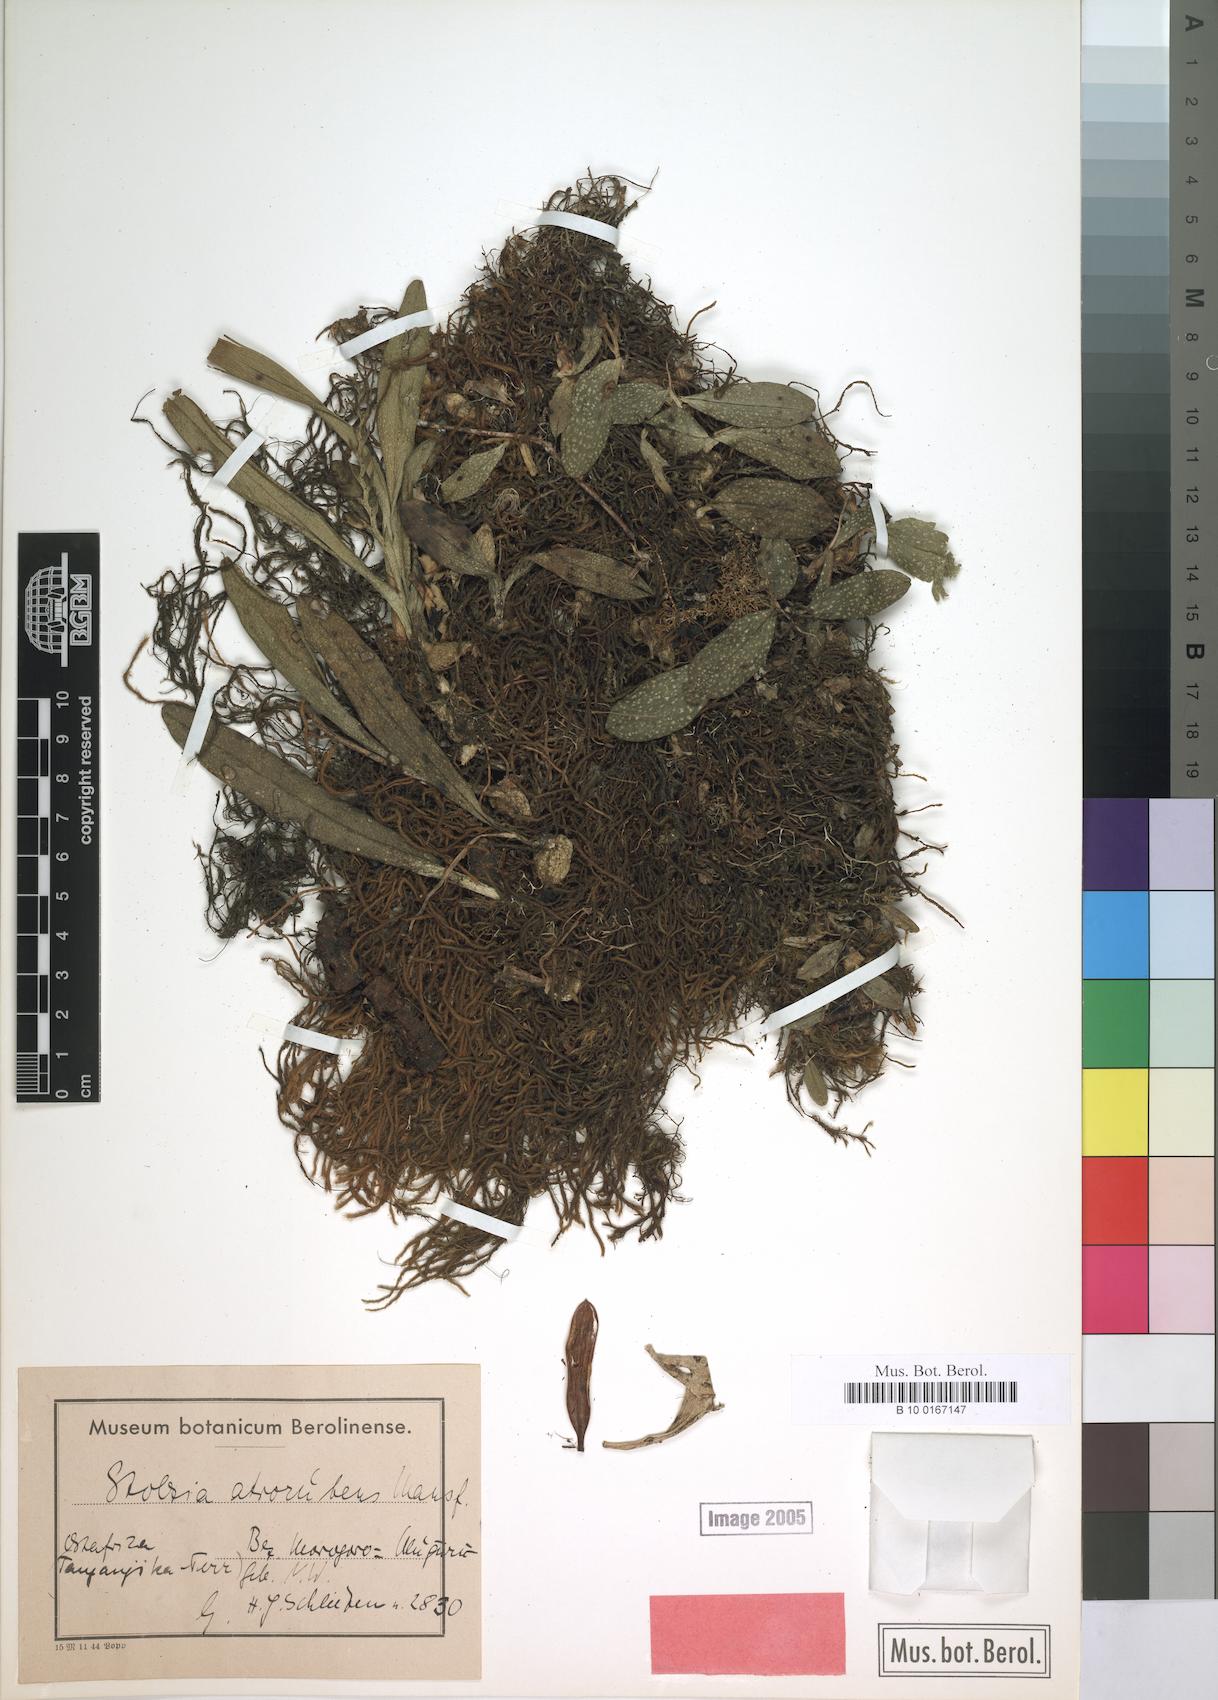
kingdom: Plantae
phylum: Tracheophyta
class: Liliopsida
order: Asparagales
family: Orchidaceae
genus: Porpax
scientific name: Porpax atrorubra
